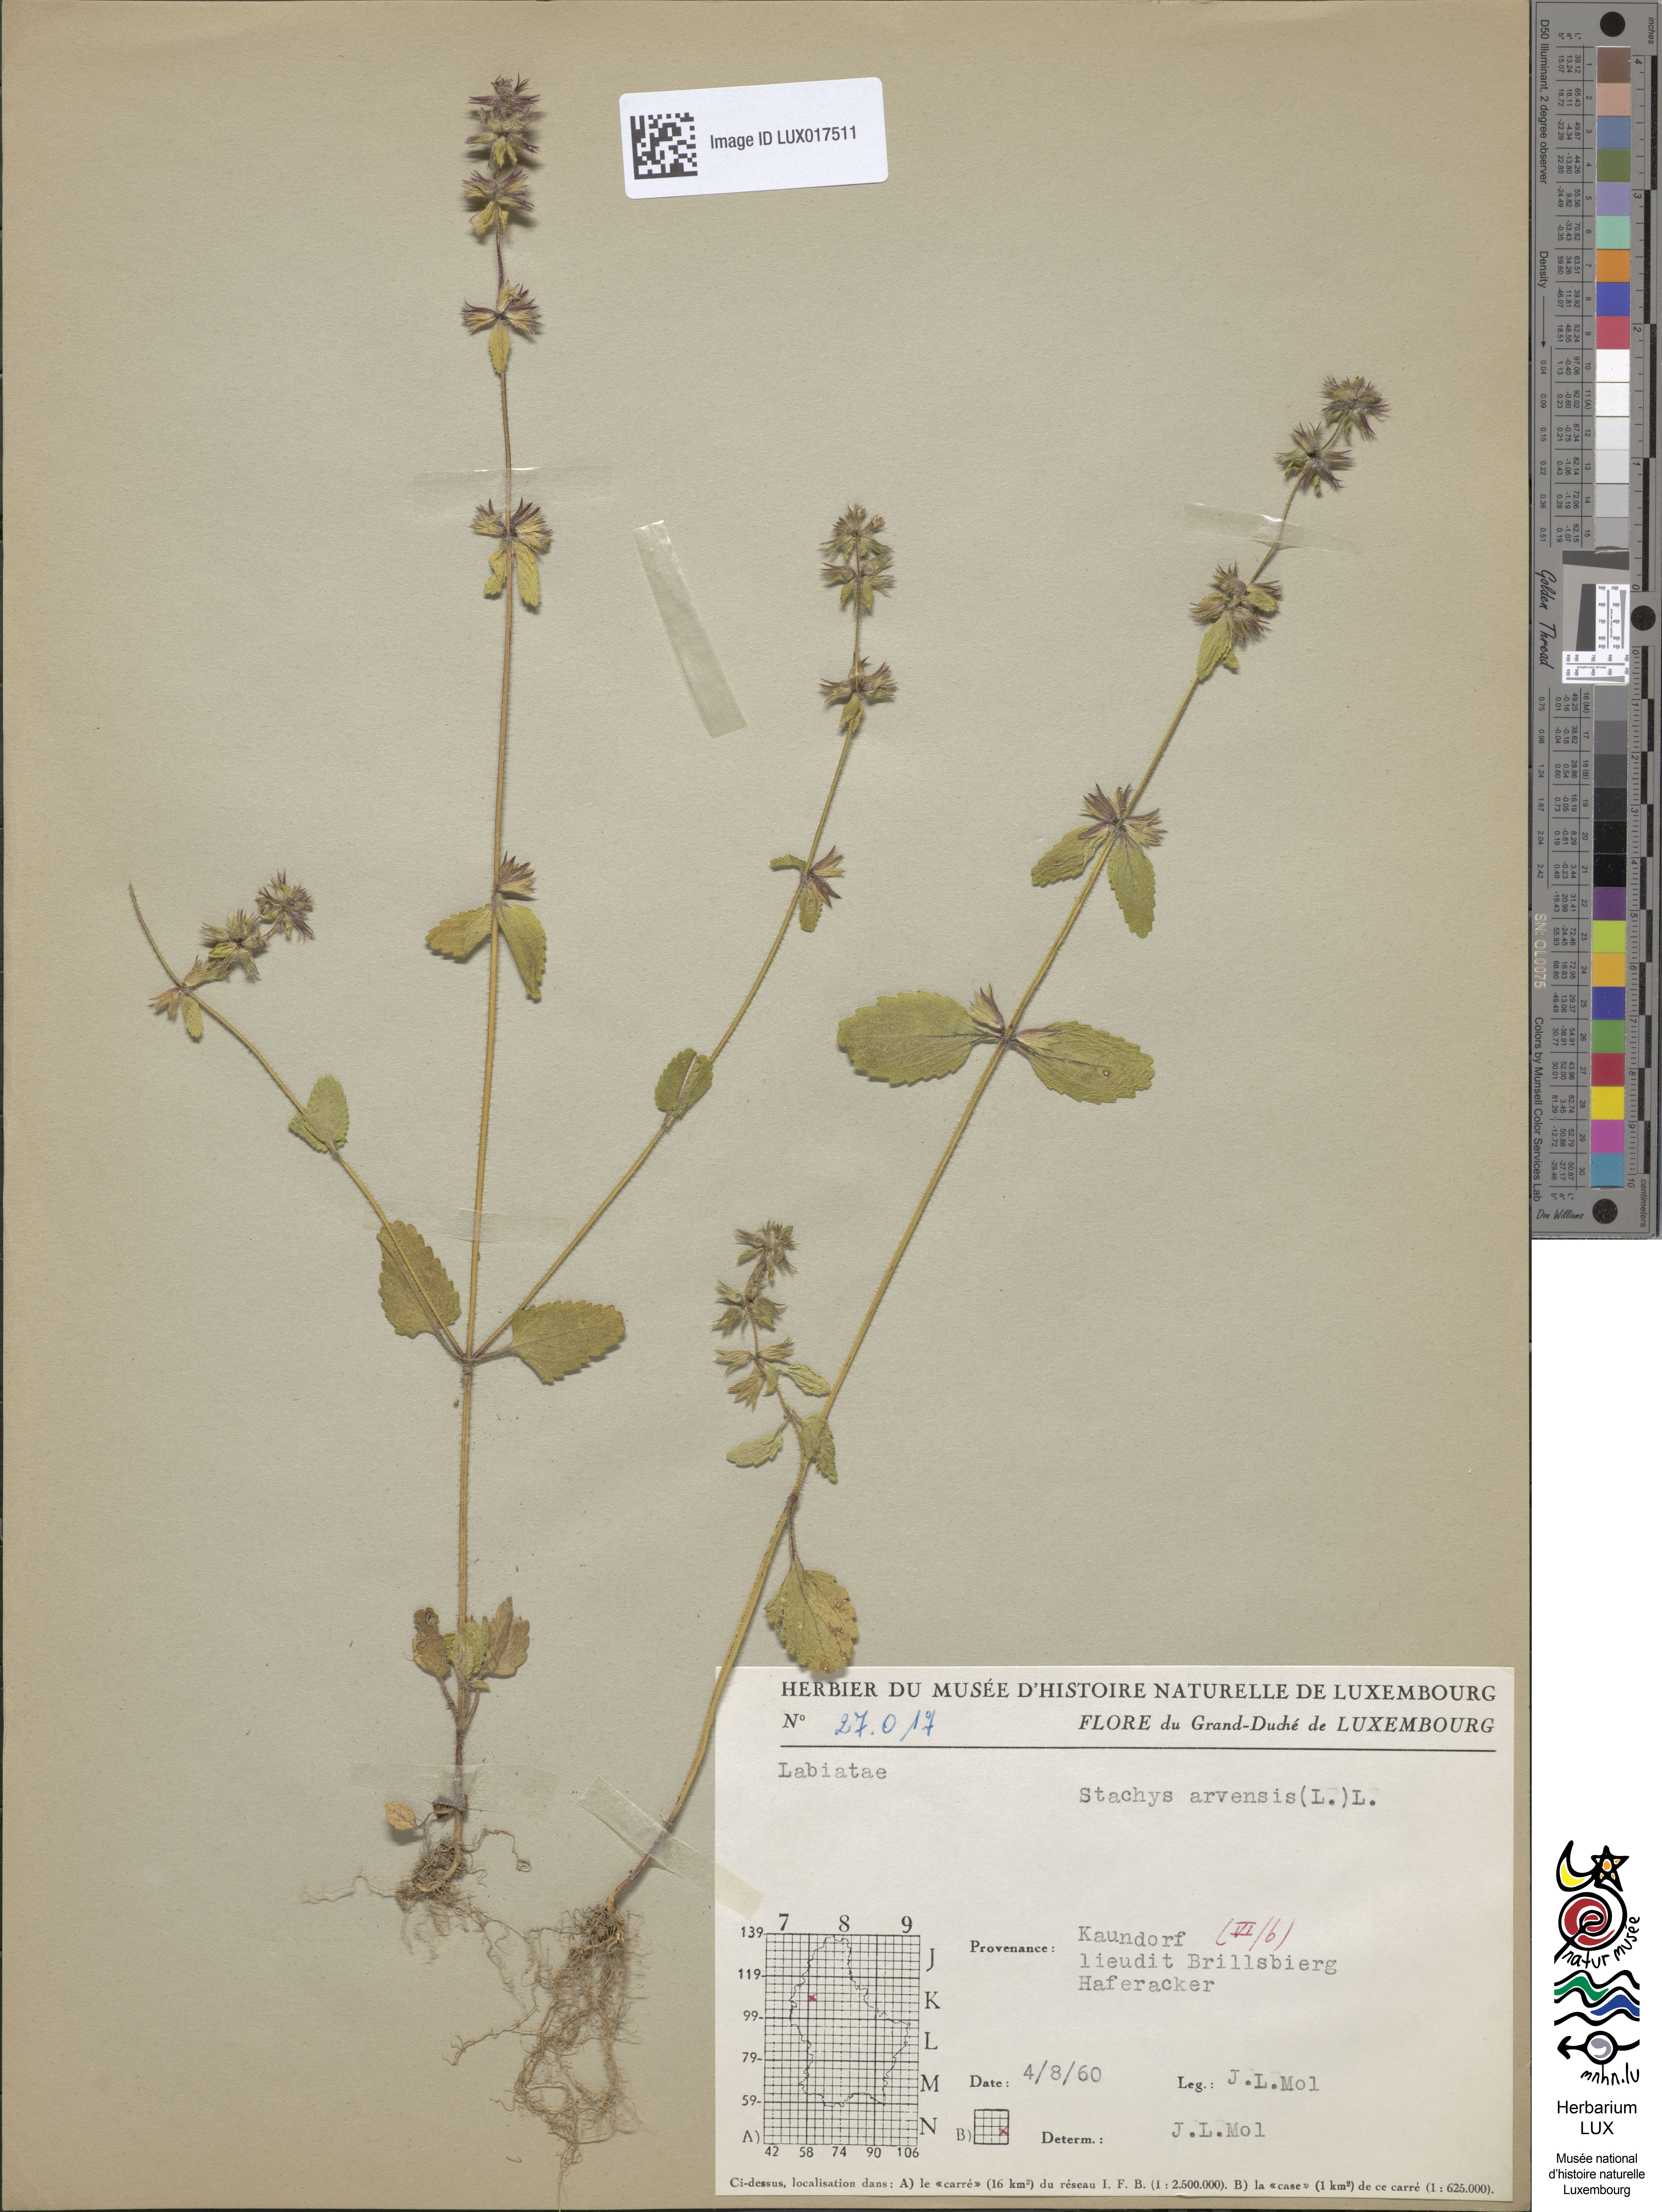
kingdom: Plantae
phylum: Tracheophyta
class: Magnoliopsida
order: Lamiales
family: Lamiaceae
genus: Stachys
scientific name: Stachys arvensis
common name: Field woundwort
